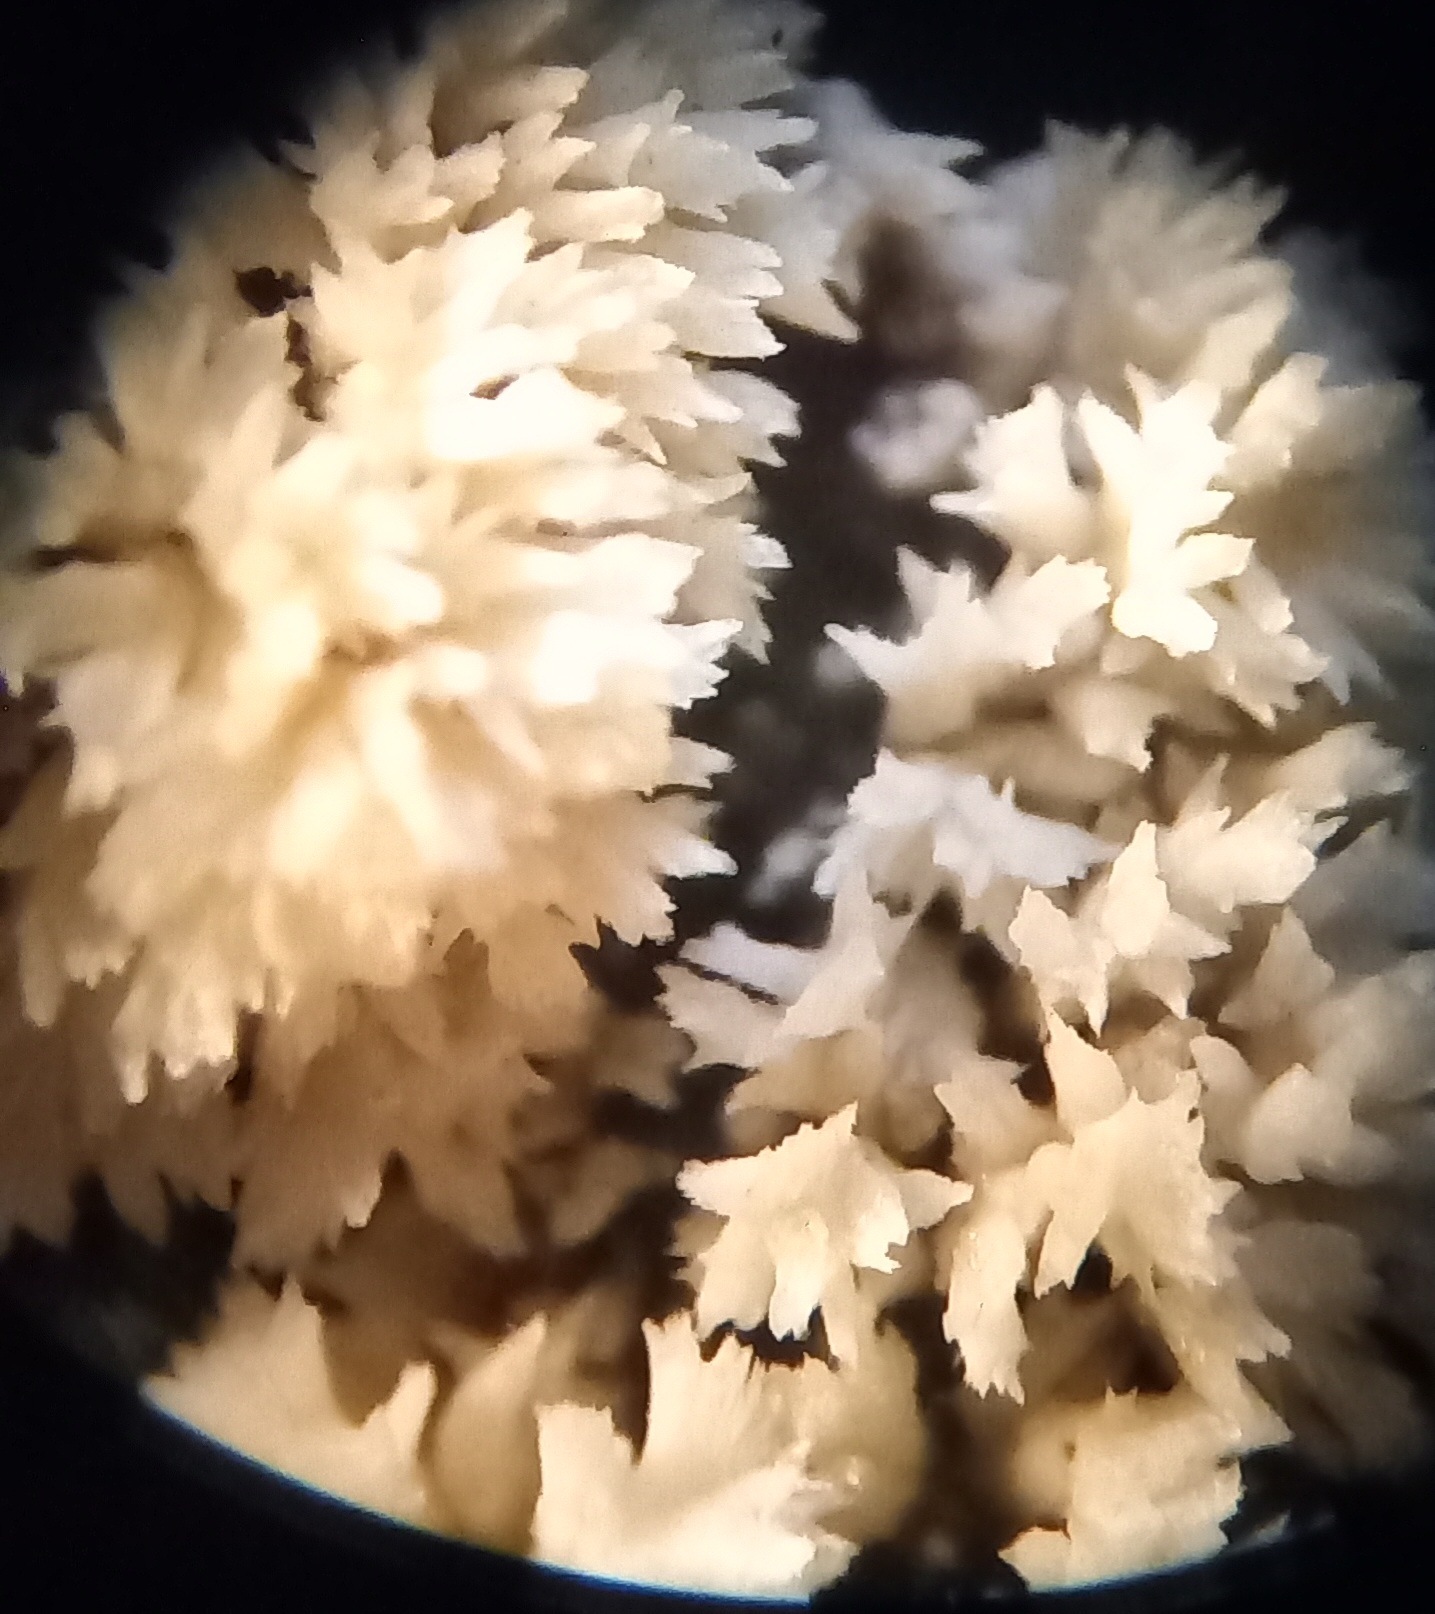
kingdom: Fungi
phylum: Basidiomycota
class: Agaricomycetes
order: Corticiales
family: Corticiaceae
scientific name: Corticiaceae
